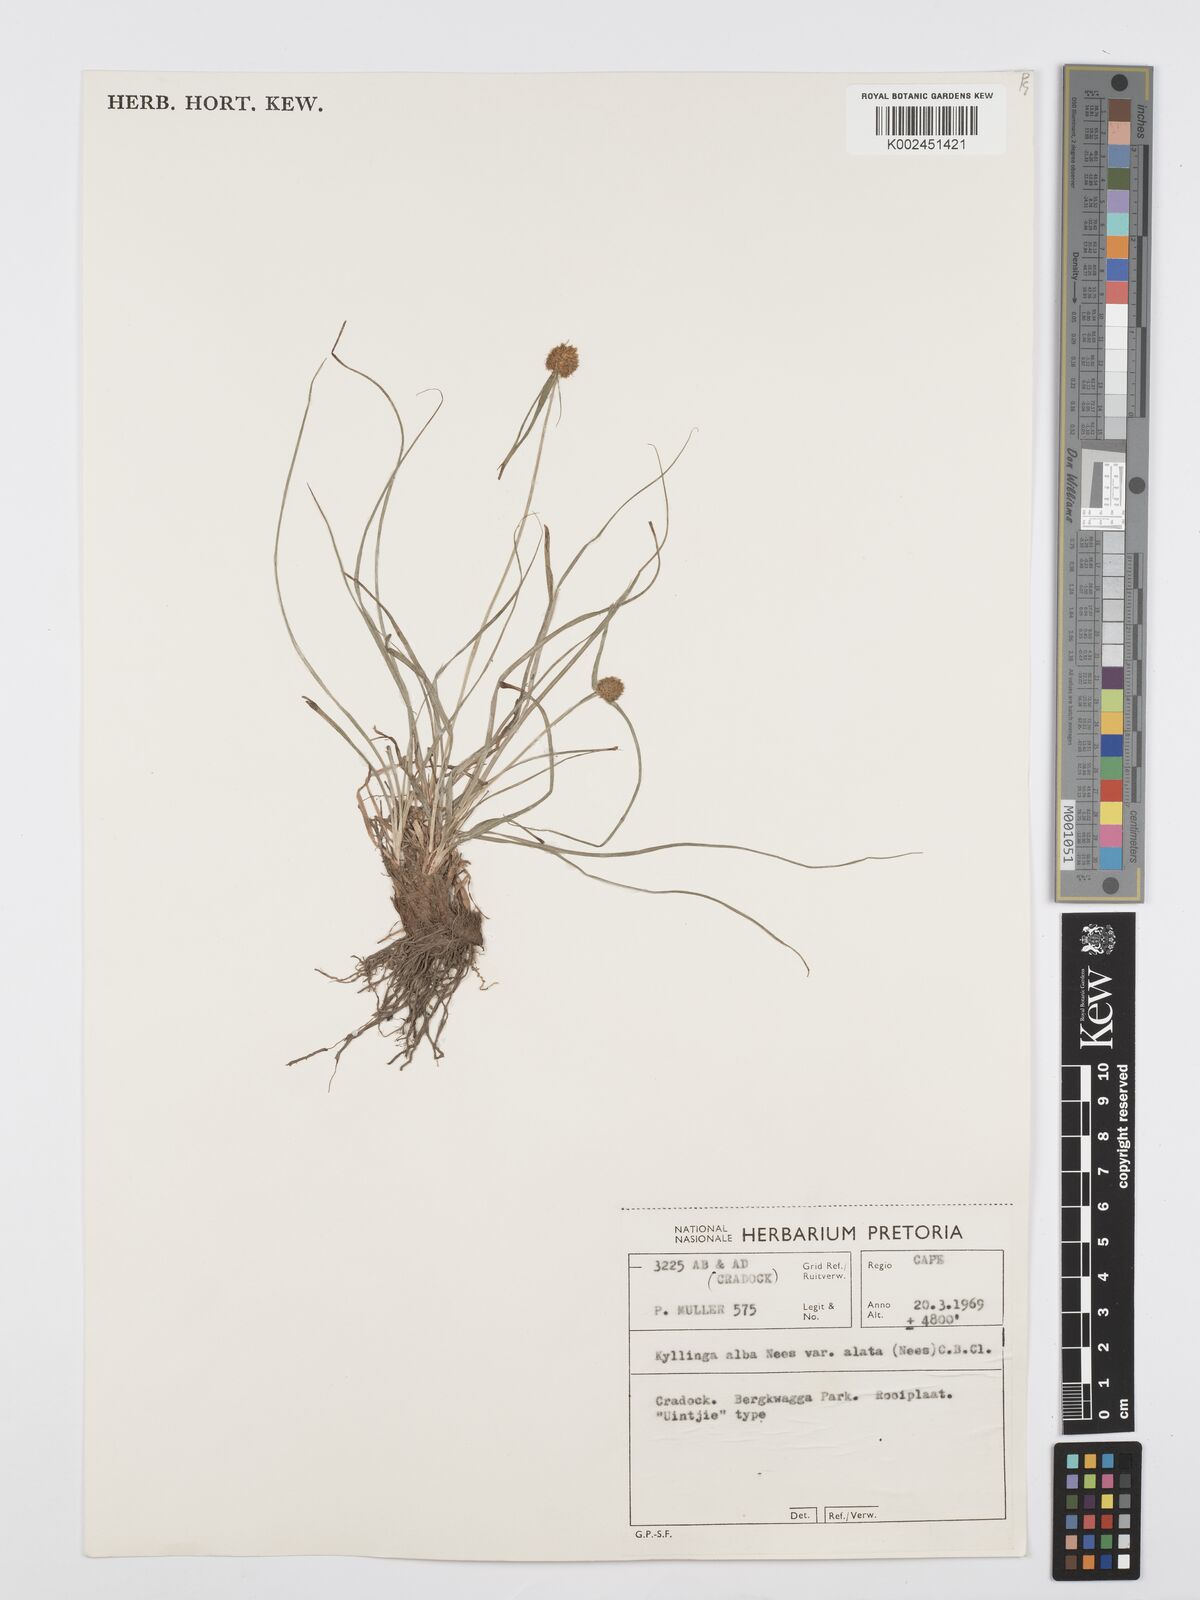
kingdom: Plantae
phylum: Tracheophyta
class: Liliopsida
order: Poales
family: Cyperaceae
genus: Cyperus
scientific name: Cyperus alatus
